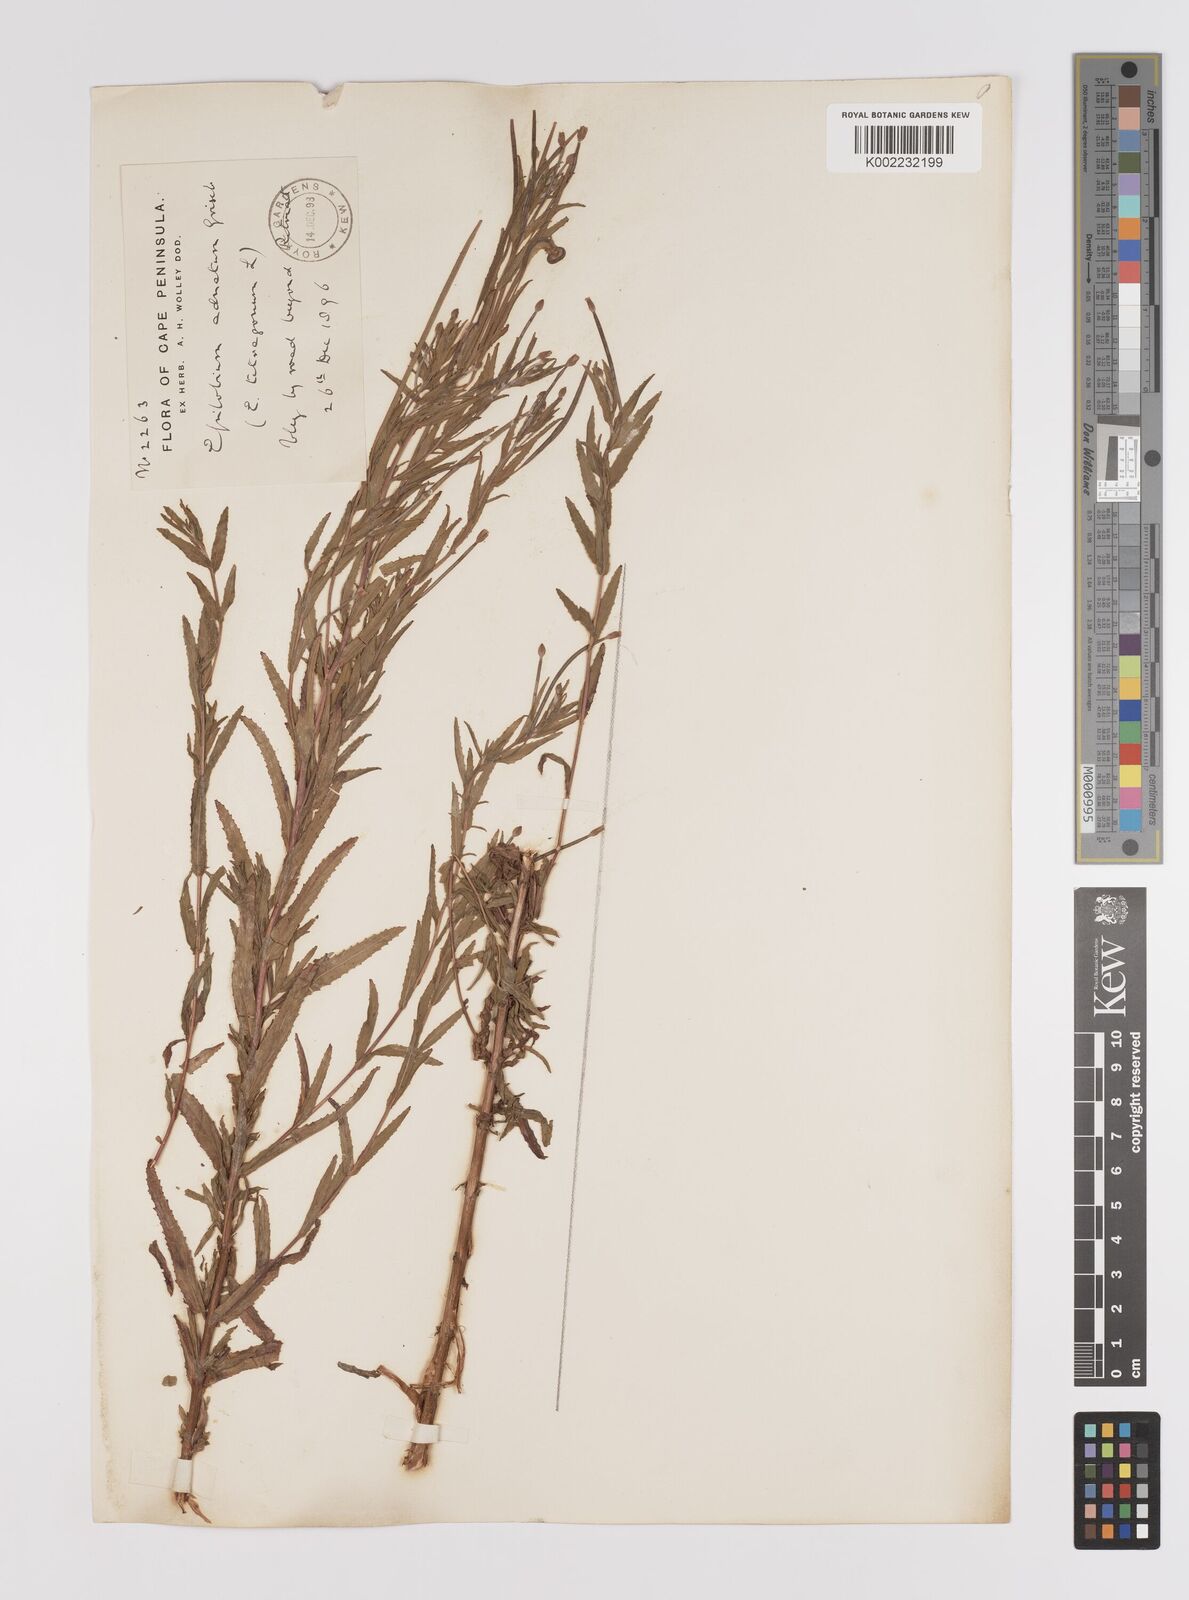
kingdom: Plantae
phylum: Tracheophyta
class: Magnoliopsida
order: Myrtales
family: Onagraceae
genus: Epilobium
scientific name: Epilobium tetragonum
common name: Square-stemmed willowherb
